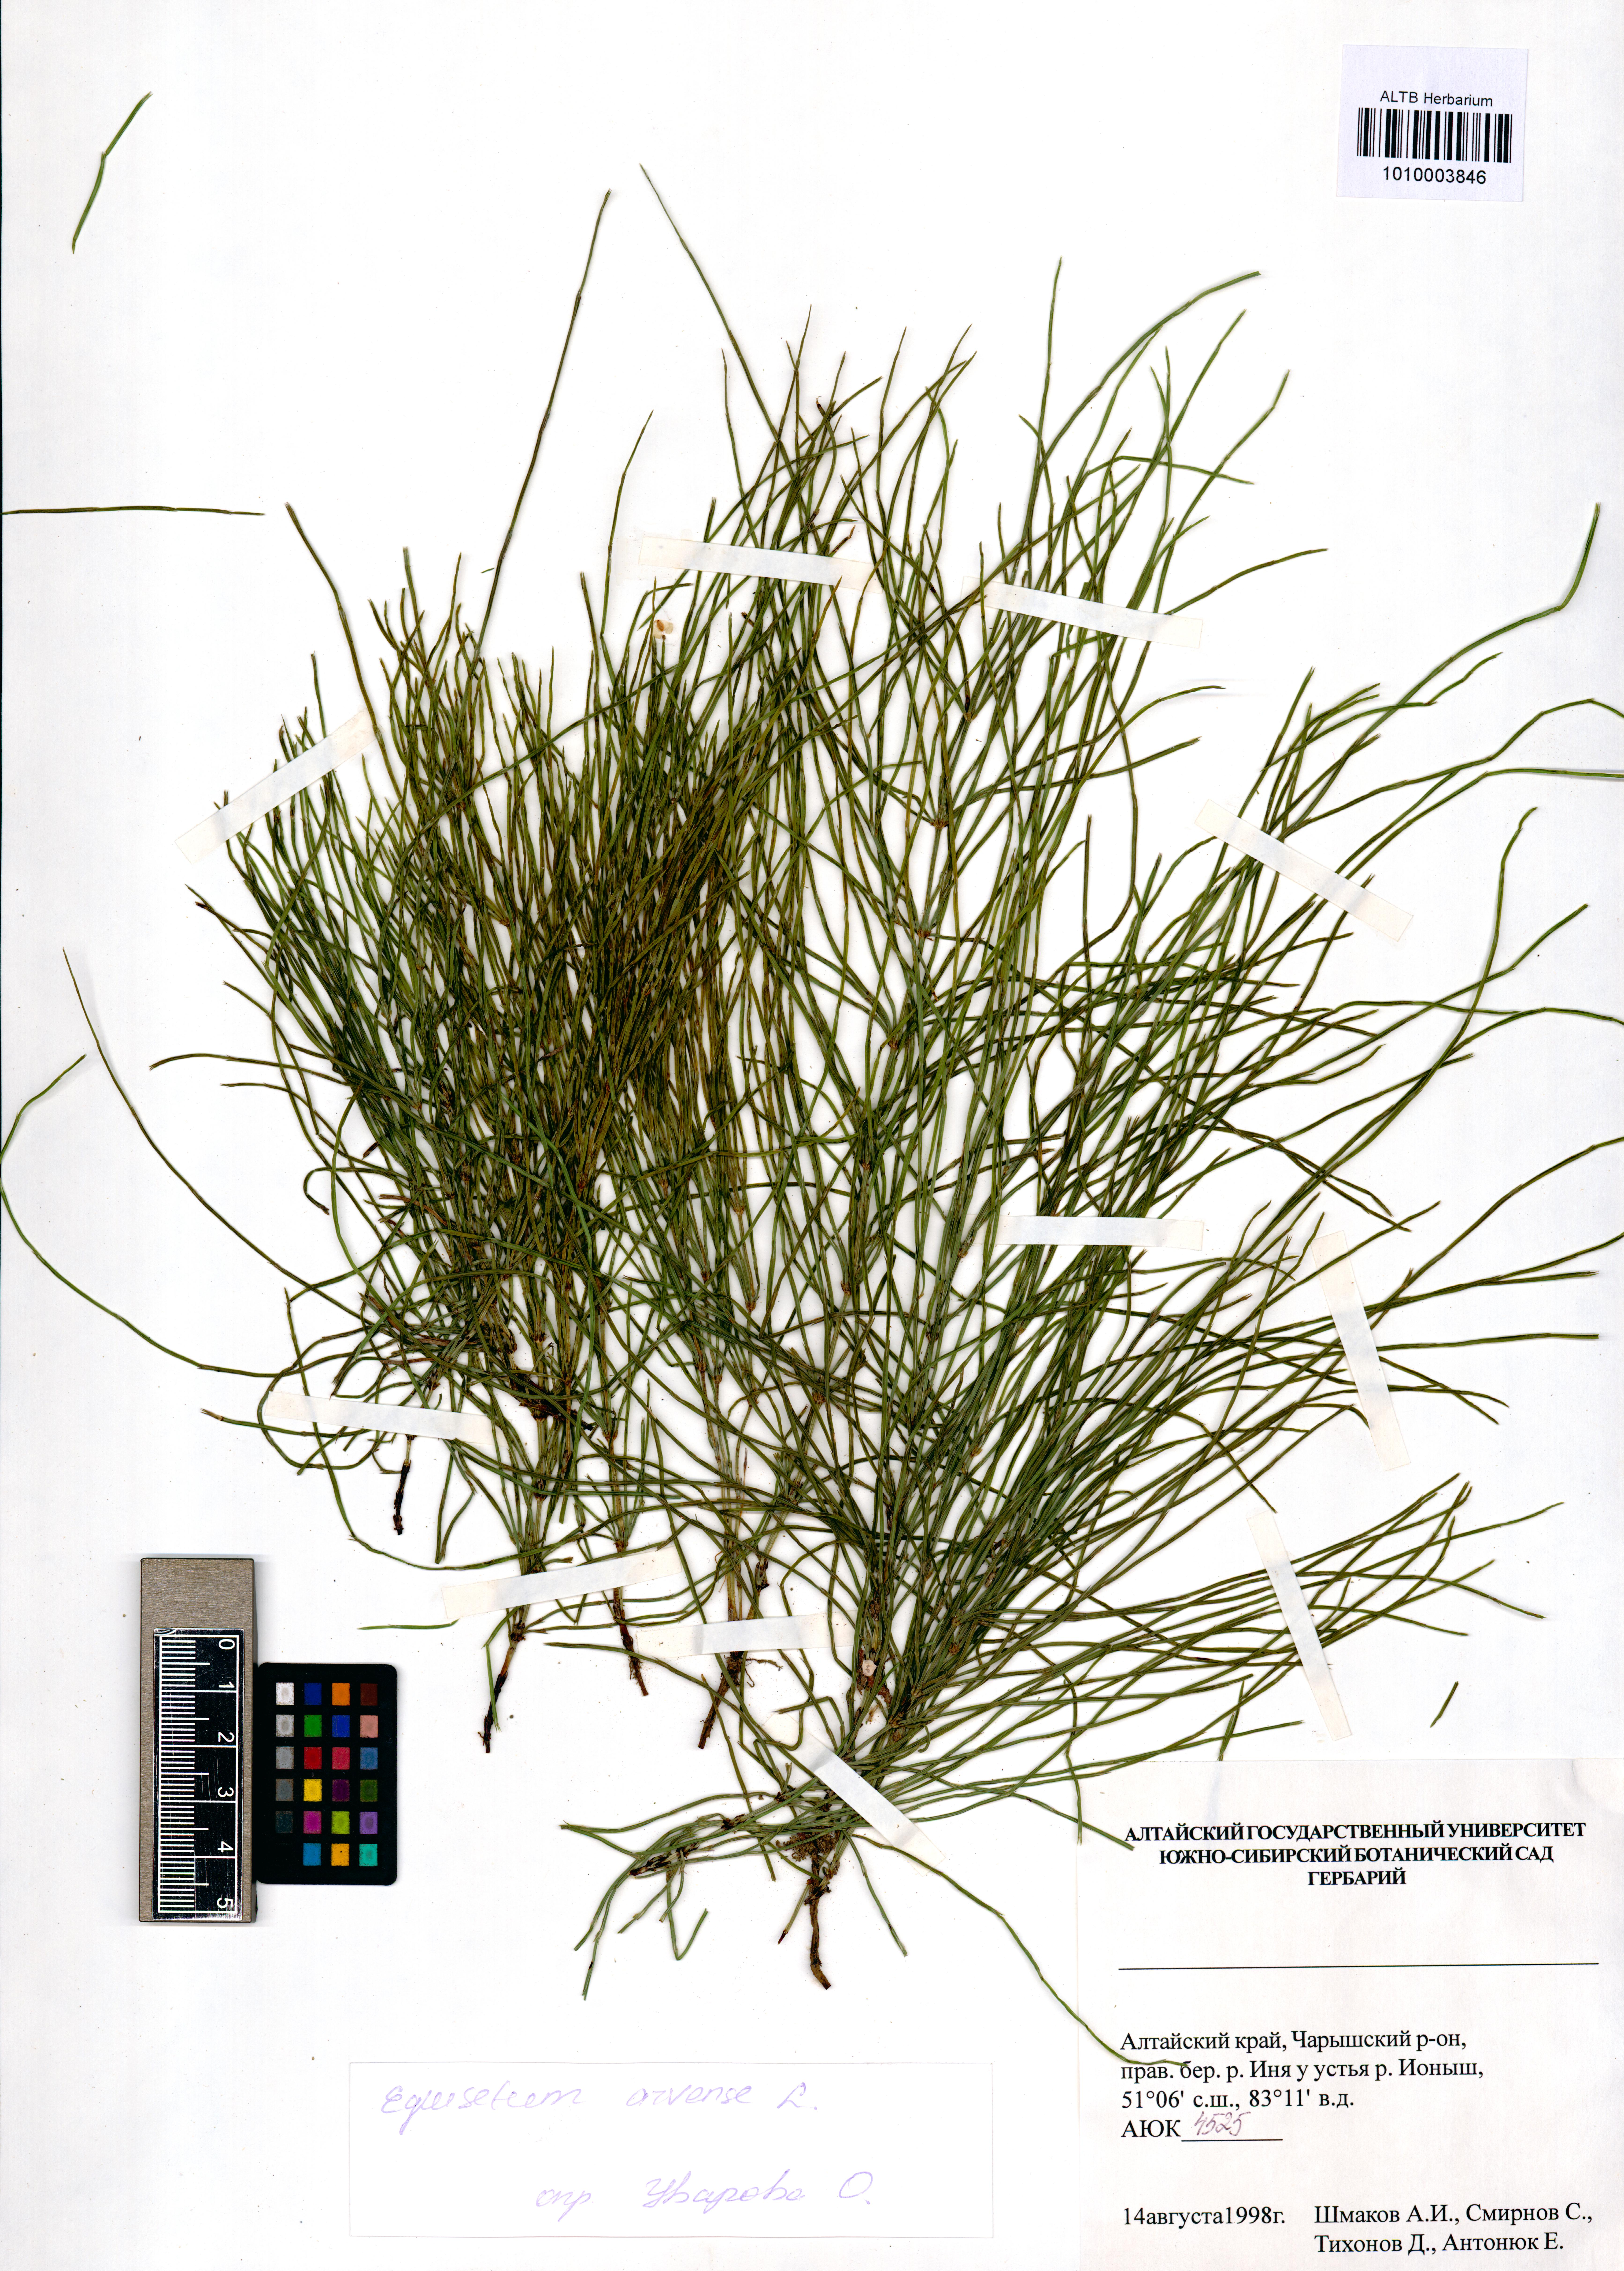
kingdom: Plantae
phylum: Tracheophyta
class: Polypodiopsida
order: Equisetales
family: Equisetaceae
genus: Equisetum
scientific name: Equisetum arvense
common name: Field horsetail
